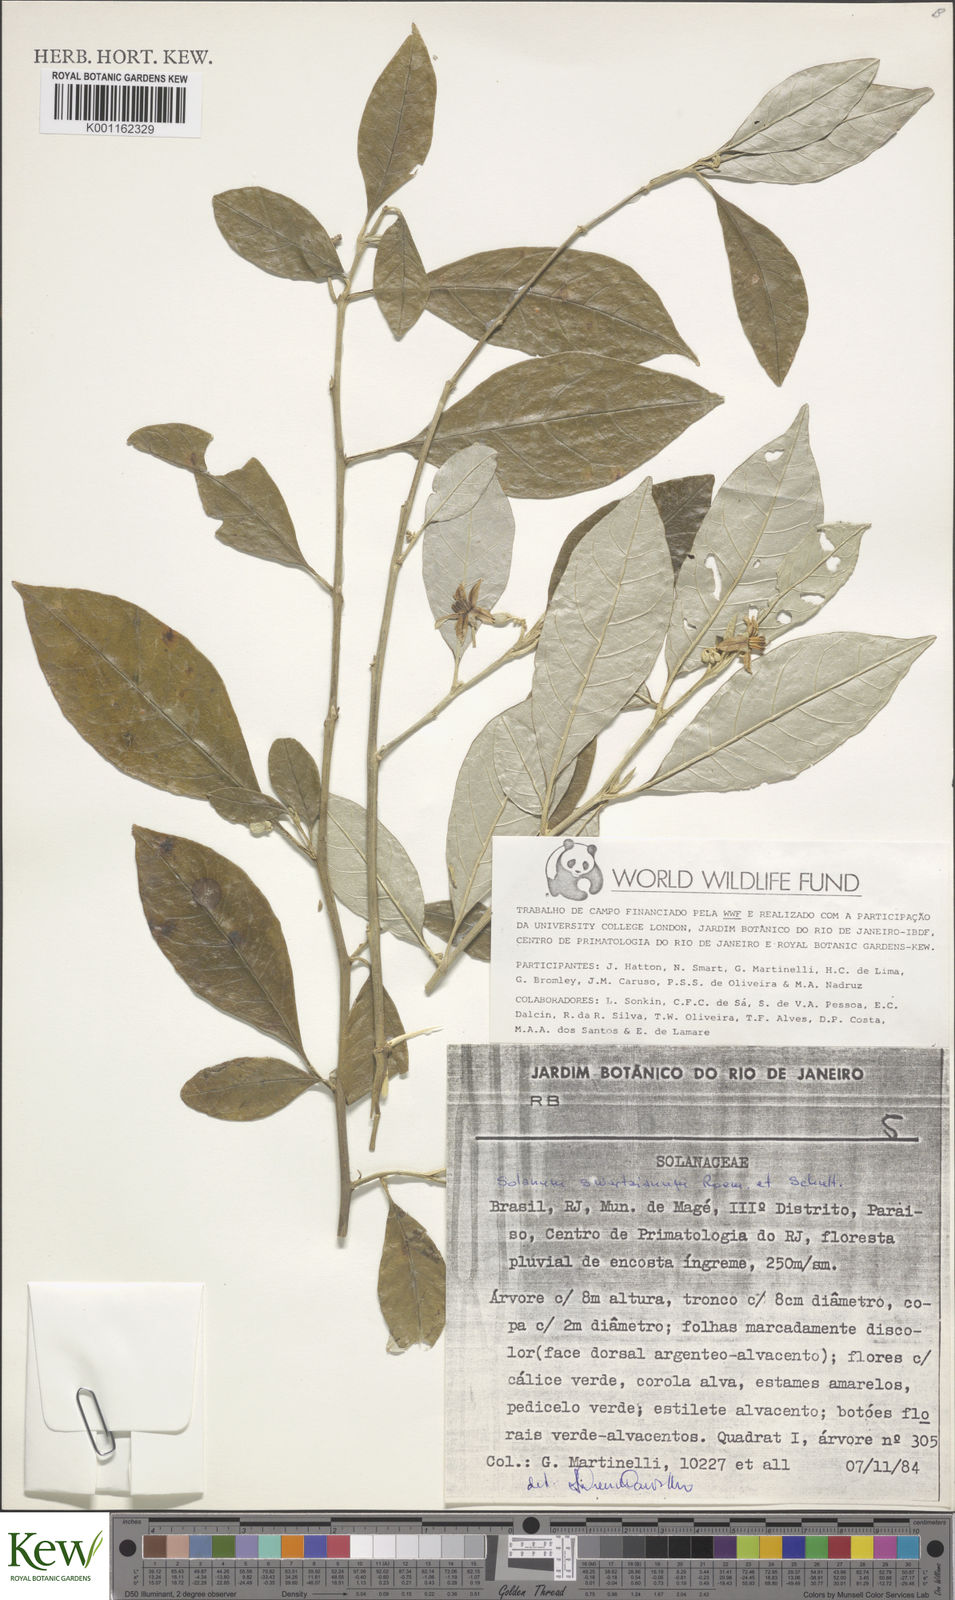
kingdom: Plantae
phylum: Tracheophyta
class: Magnoliopsida
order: Solanales
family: Solanaceae
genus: Solanum
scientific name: Solanum swartzianum
